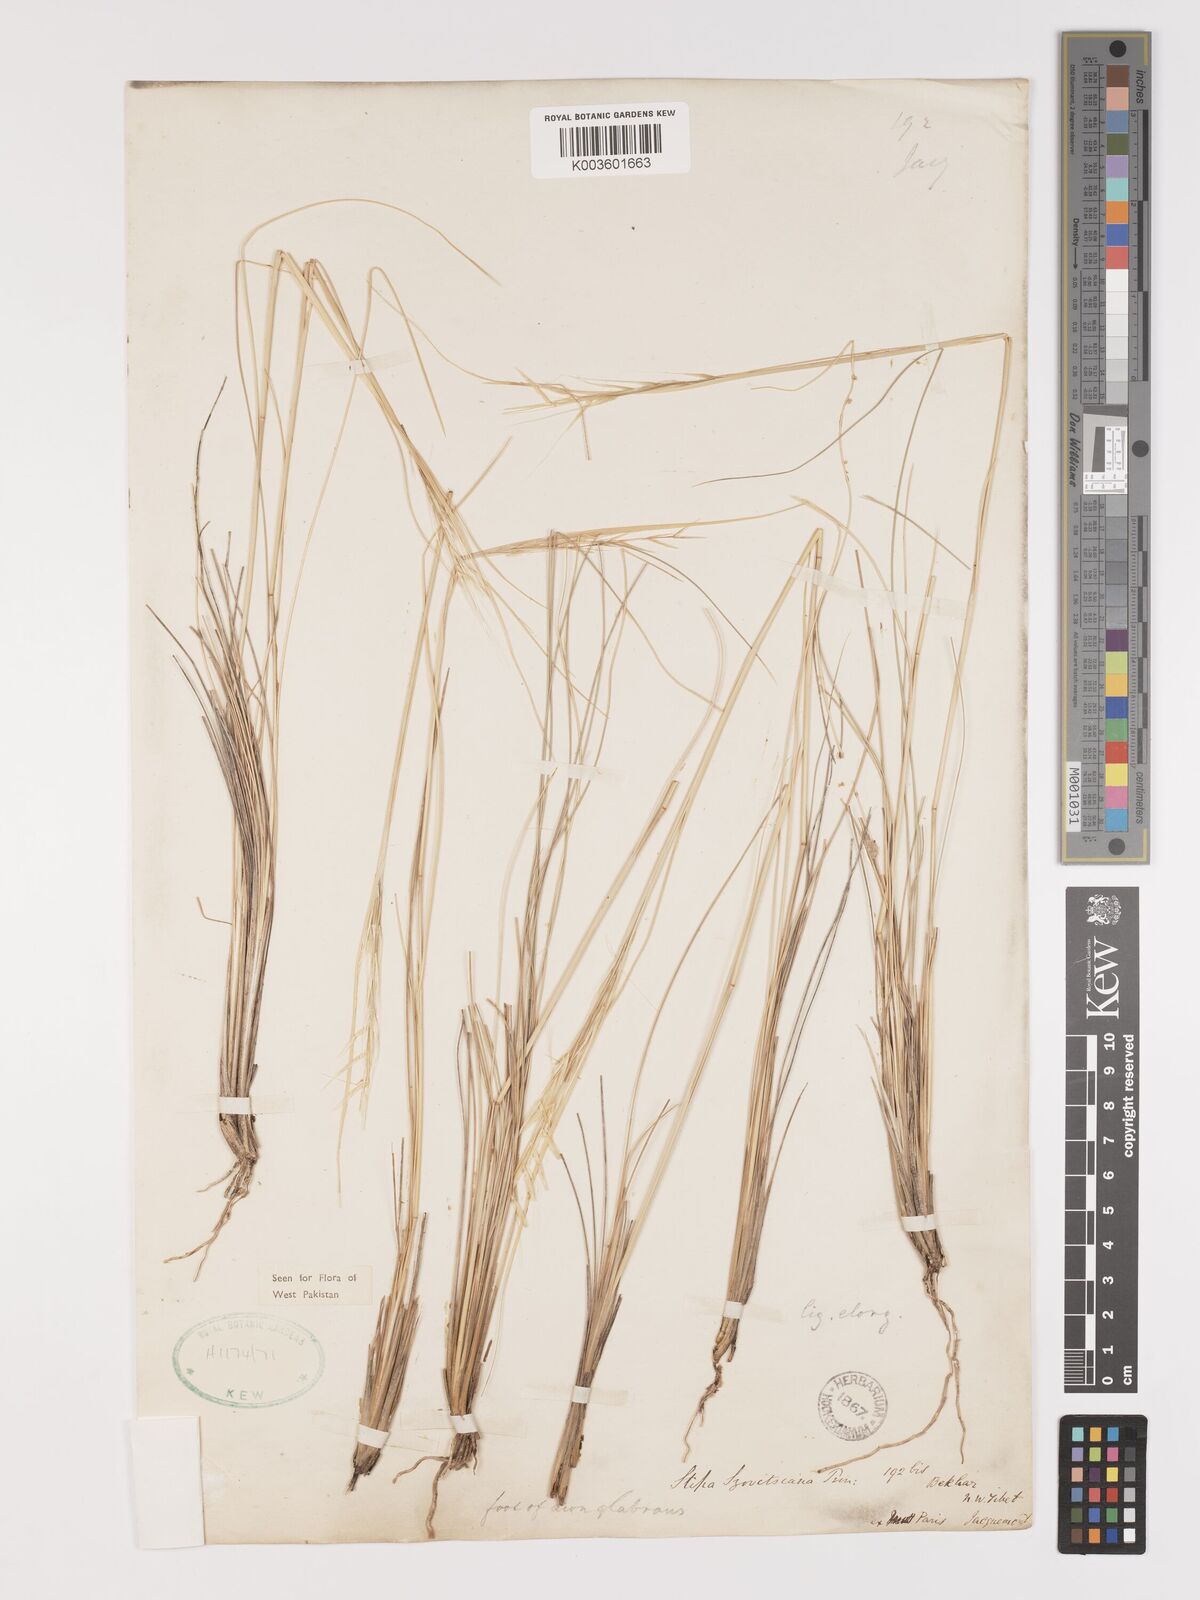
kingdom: Plantae
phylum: Tracheophyta
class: Liliopsida
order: Poales
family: Poaceae
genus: Stipa
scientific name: Stipa turkestanica
